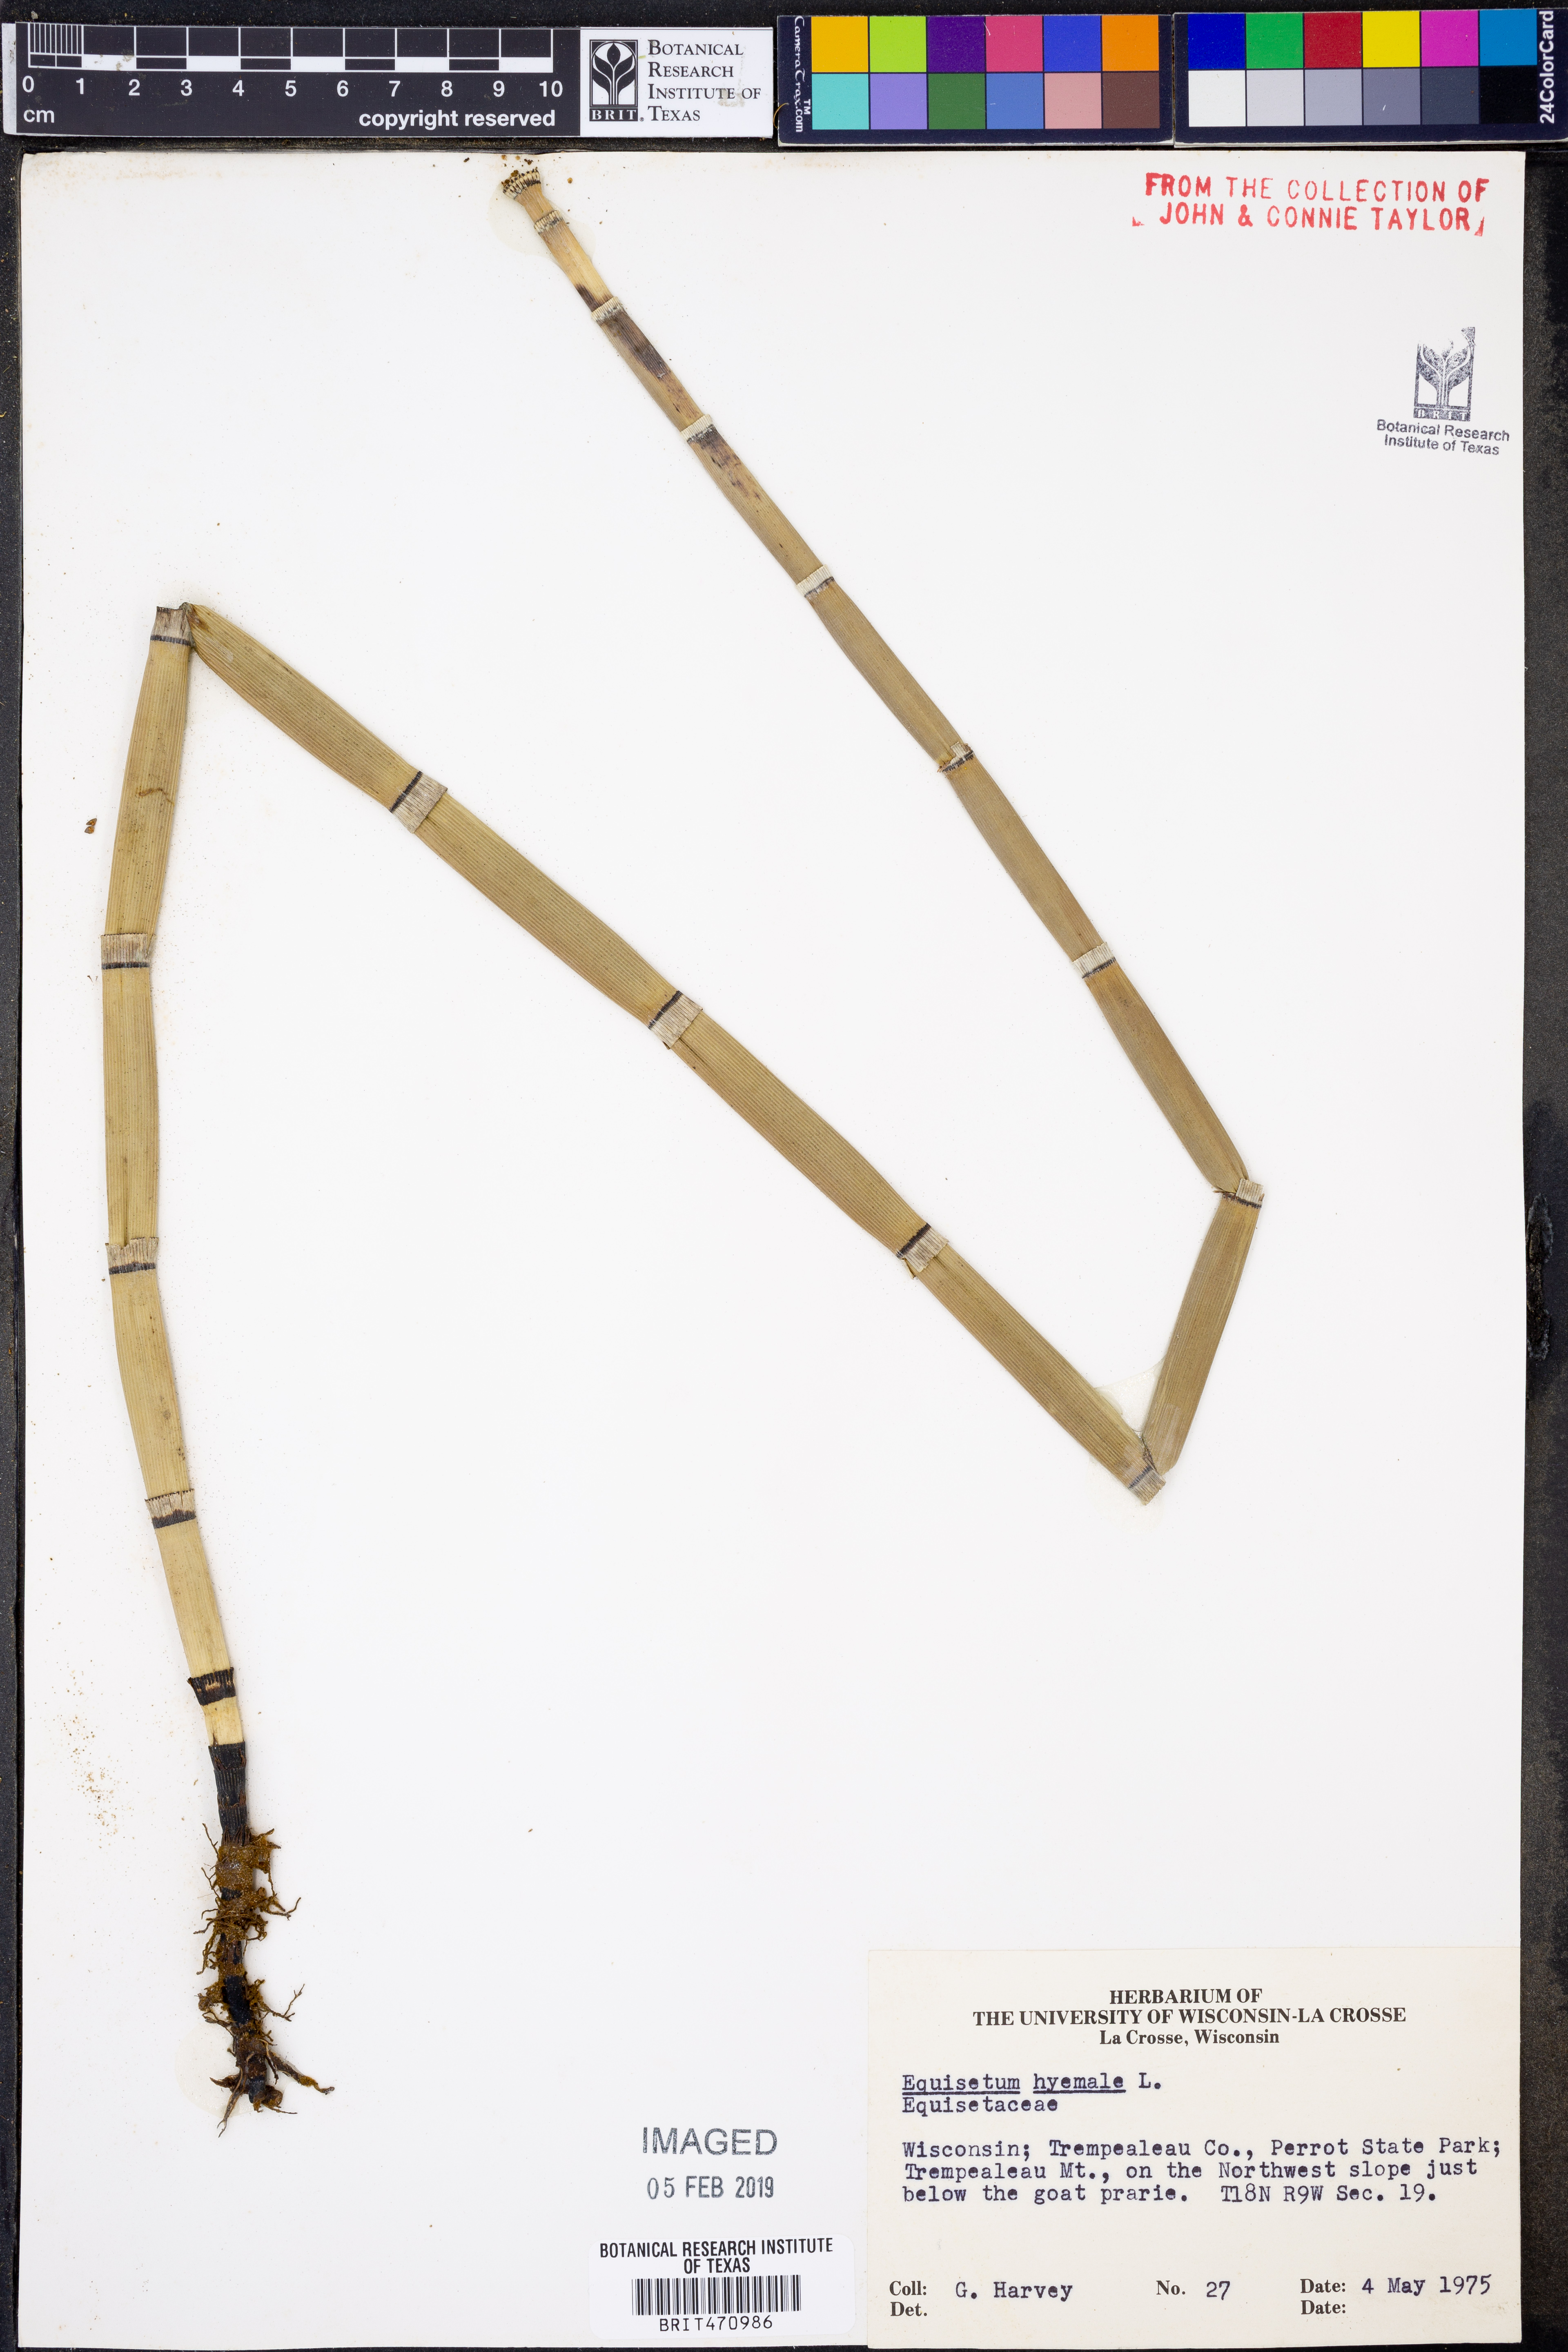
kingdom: Plantae
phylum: Tracheophyta
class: Polypodiopsida
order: Equisetales
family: Equisetaceae
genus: Equisetum
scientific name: Equisetum hyemale
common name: Rough horsetail
